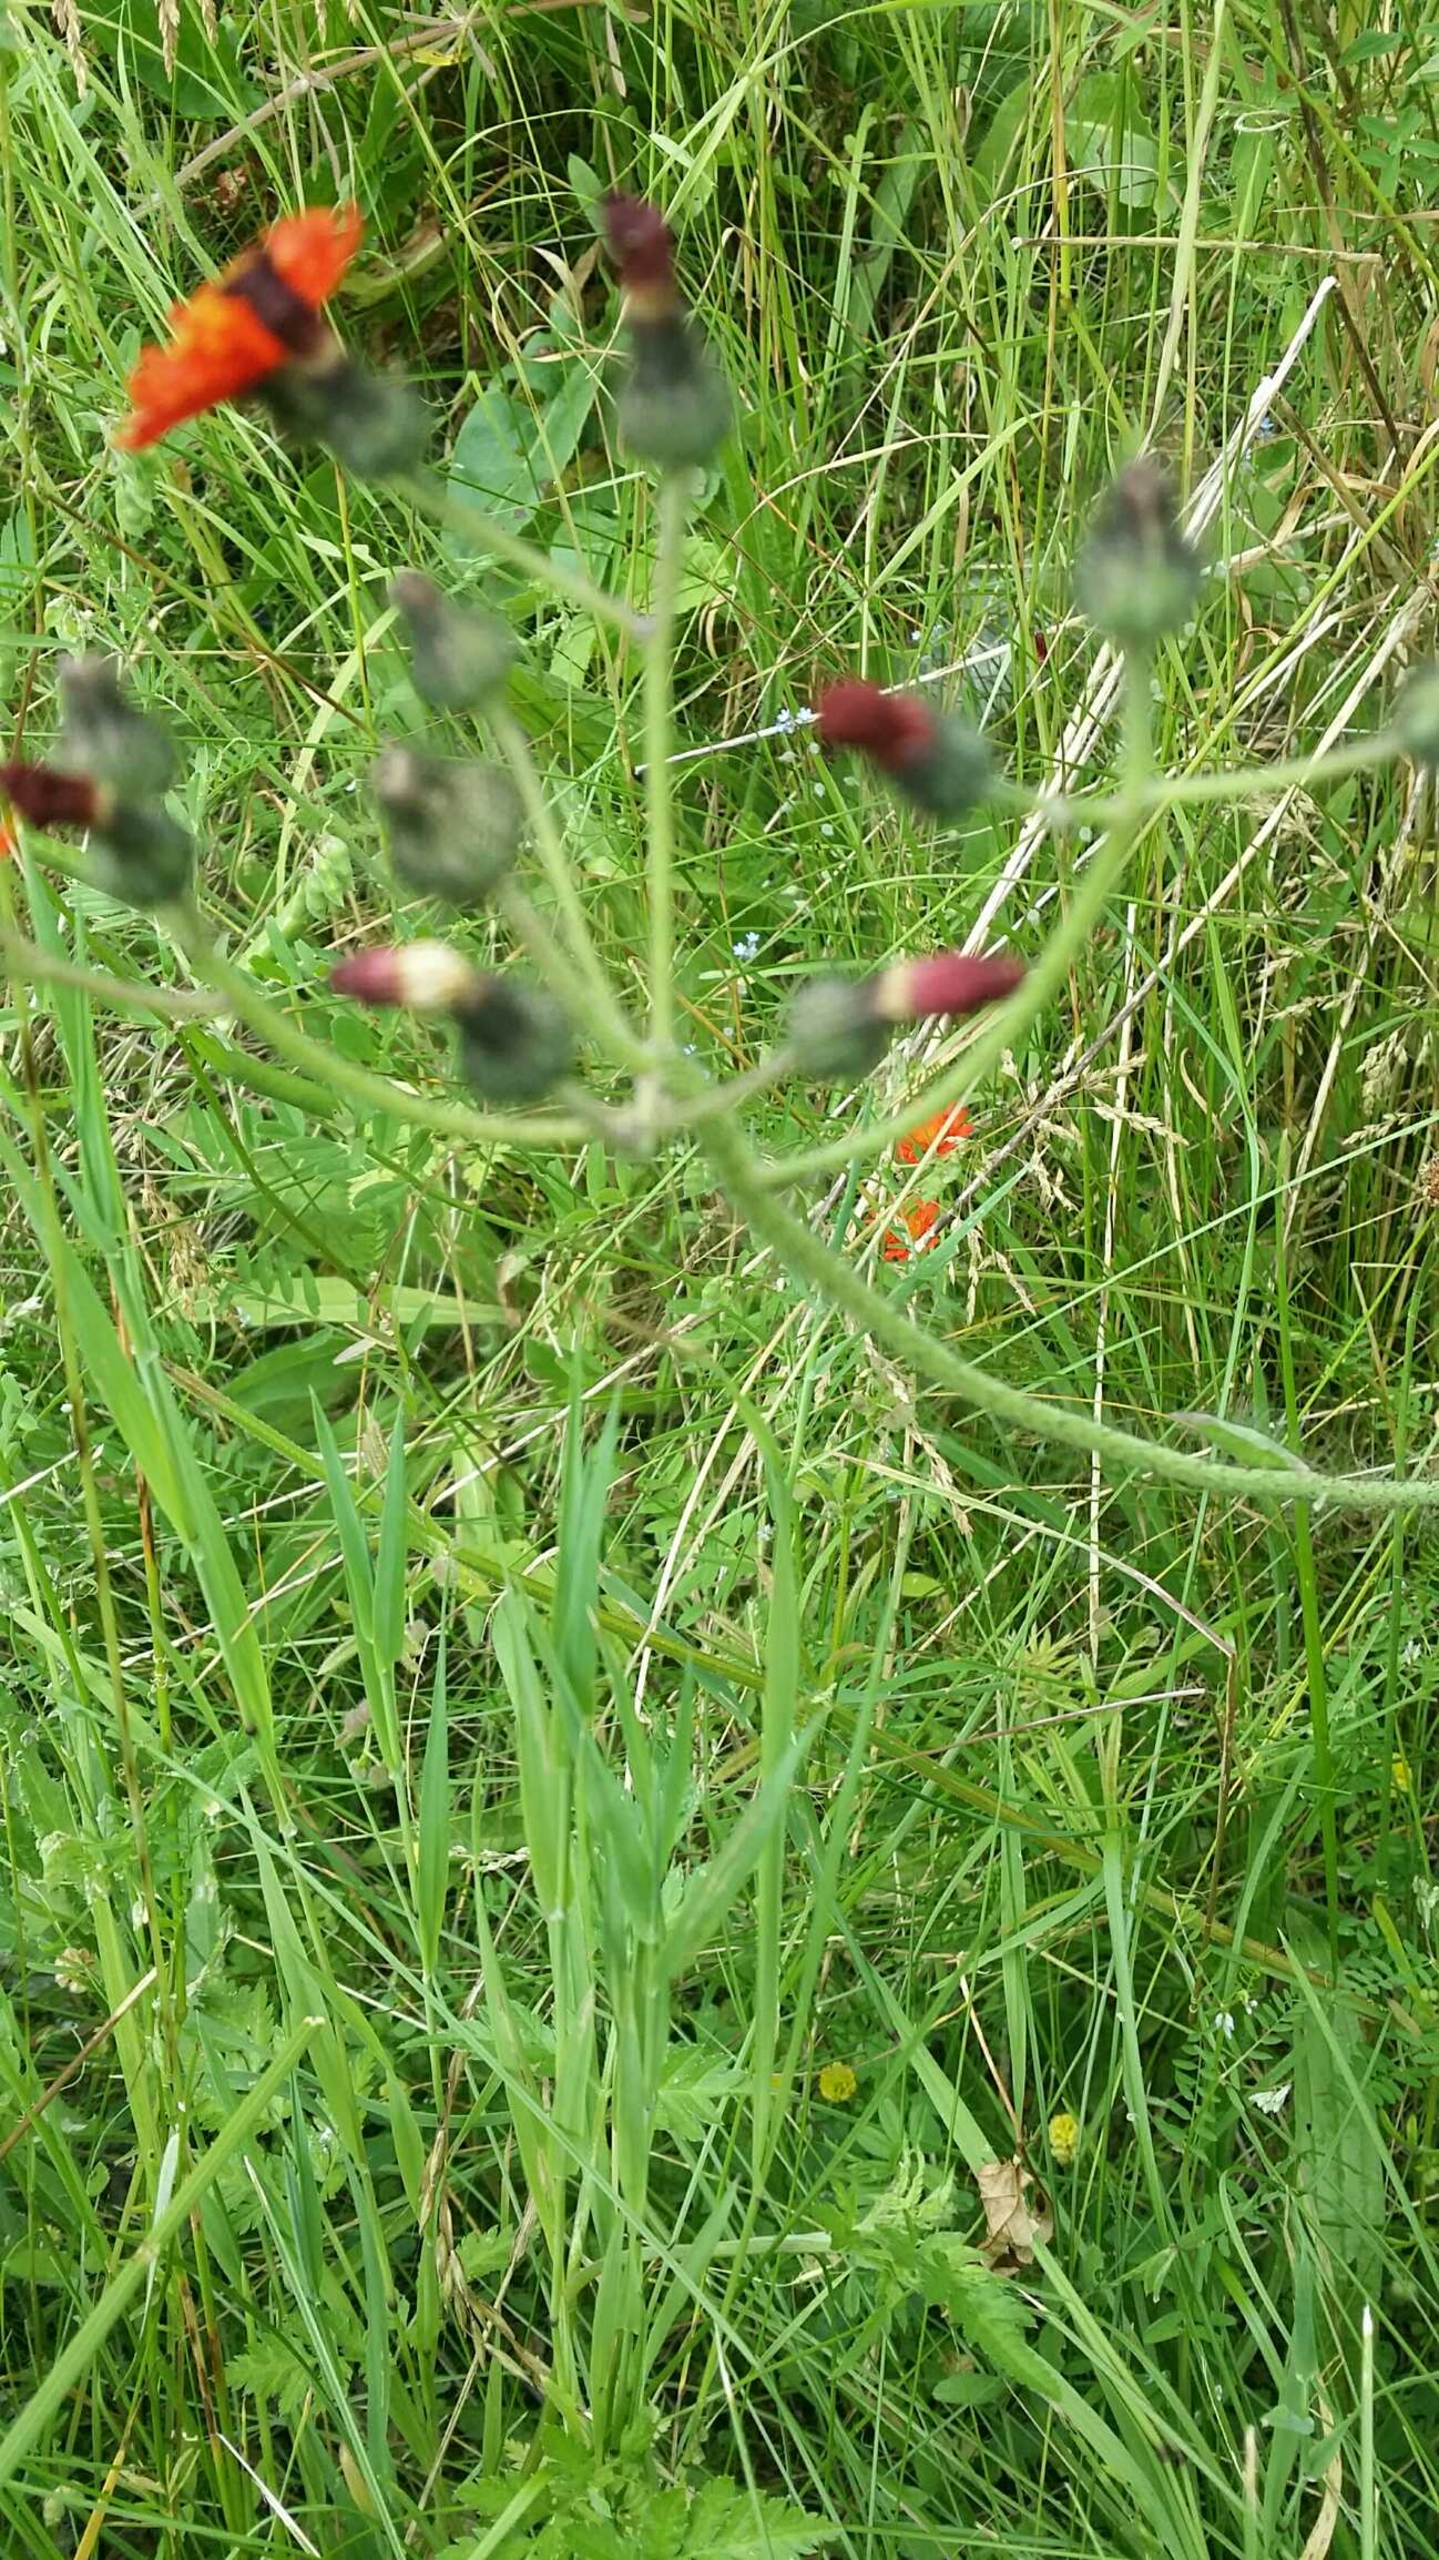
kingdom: Plantae
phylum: Tracheophyta
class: Magnoliopsida
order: Asterales
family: Asteraceae
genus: Pilosella
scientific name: Pilosella aurantiaca
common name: Pomerans-høgeurt
